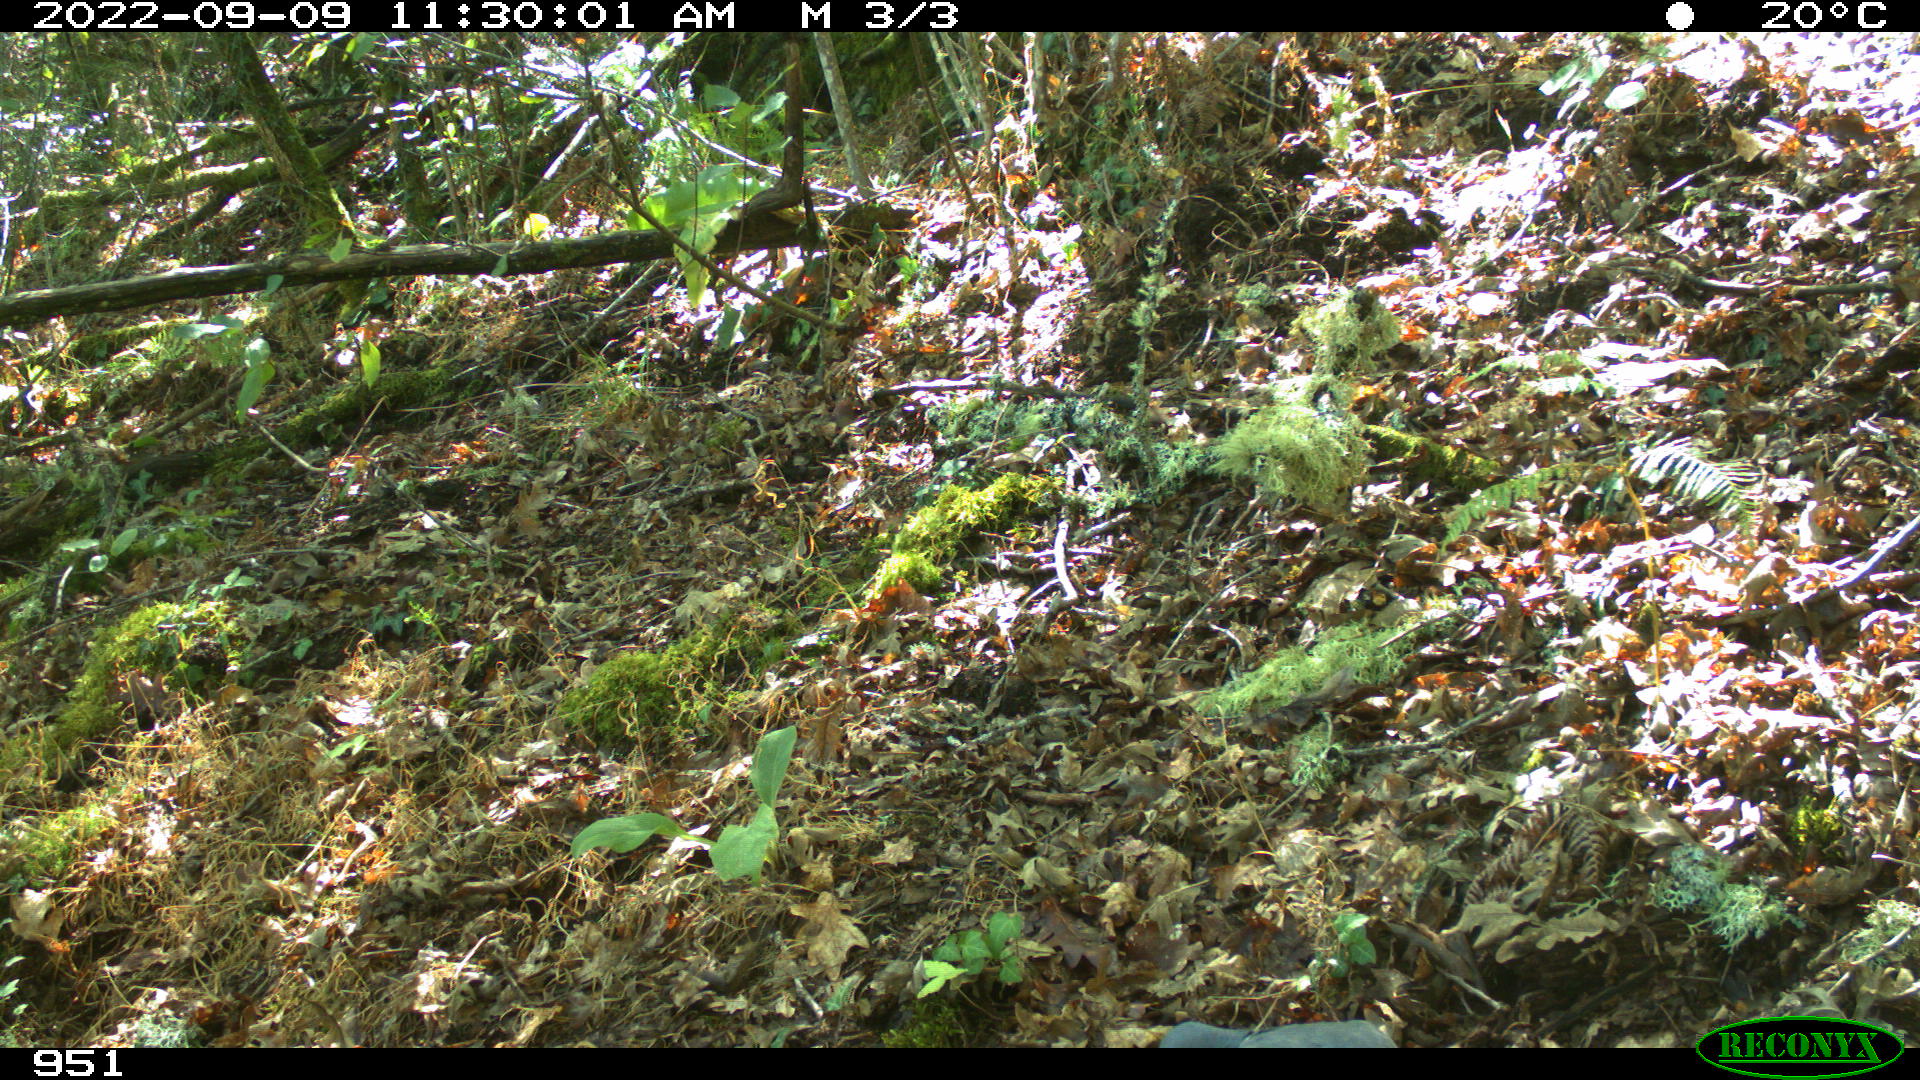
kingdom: Animalia
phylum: Chordata
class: Aves
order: Columbiformes
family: Columbidae
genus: Columba
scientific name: Columba palumbus
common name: Common wood pigeon
